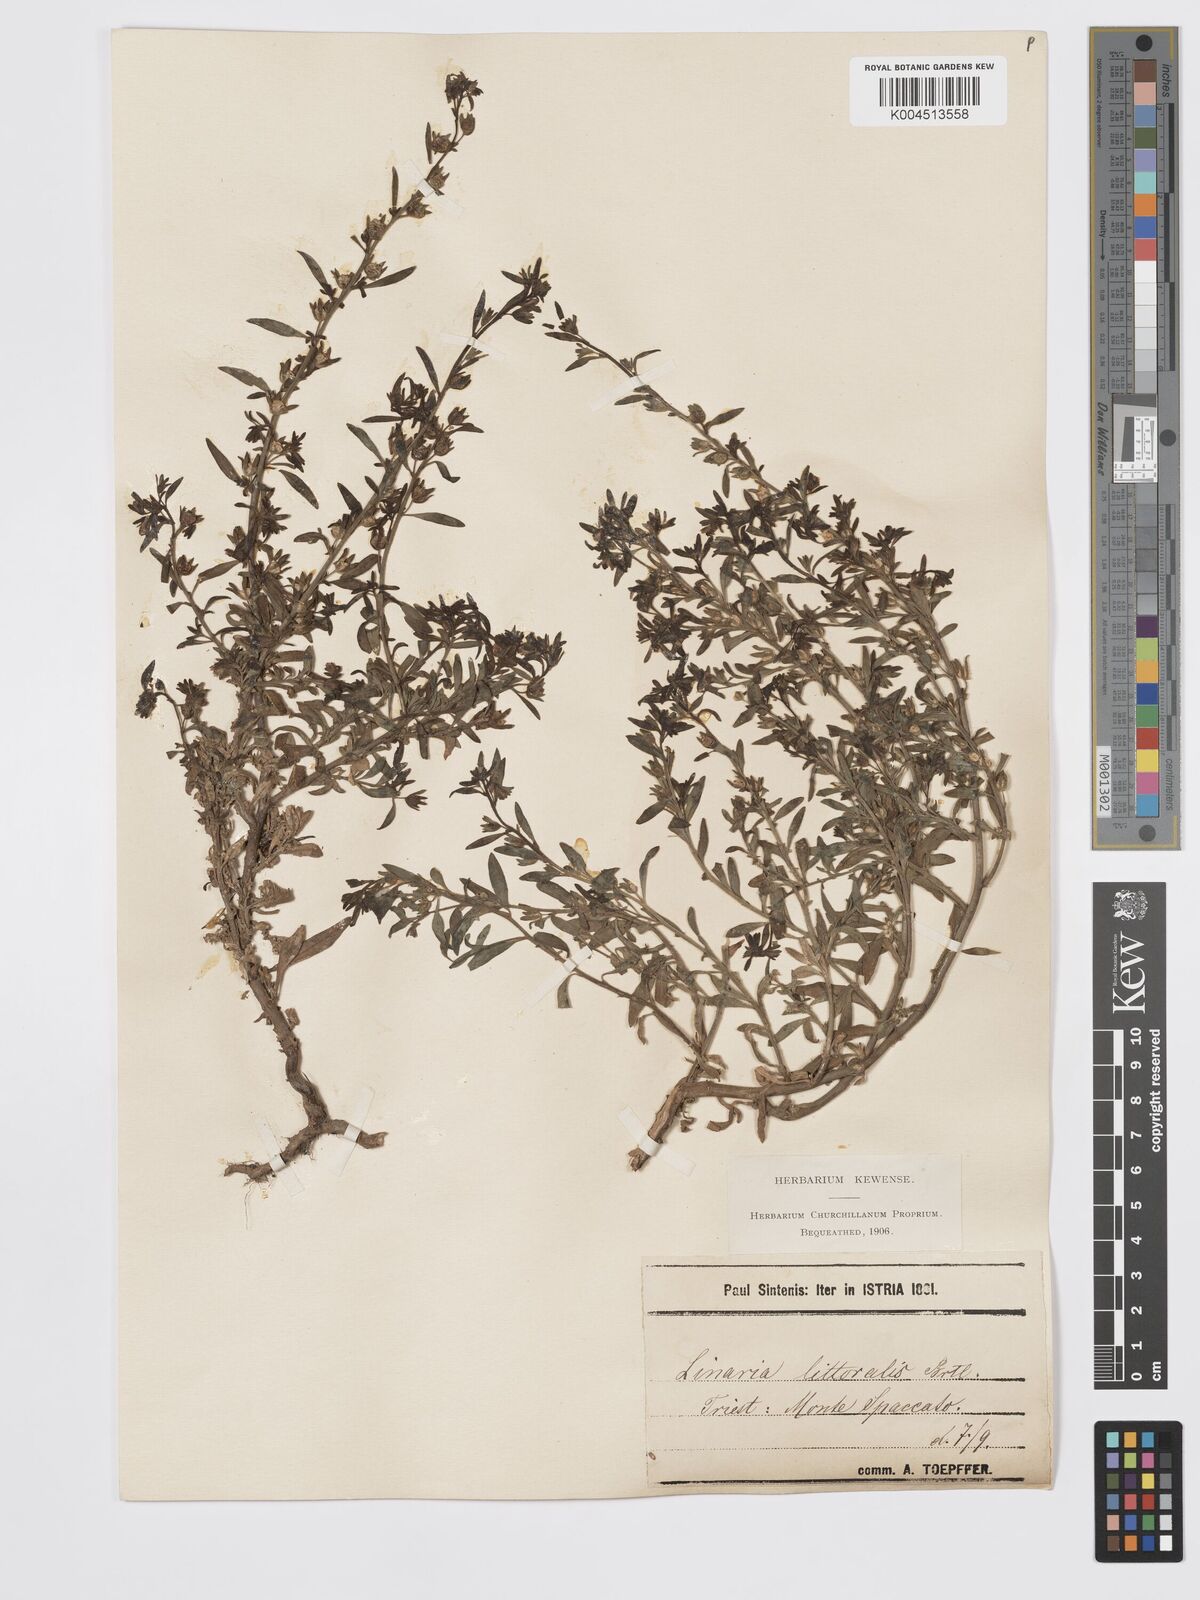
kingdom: Plantae
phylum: Tracheophyta
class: Magnoliopsida
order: Lamiales
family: Plantaginaceae
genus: Chaenorhinum
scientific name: Chaenorhinum minus
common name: Dwarf snapdragon
